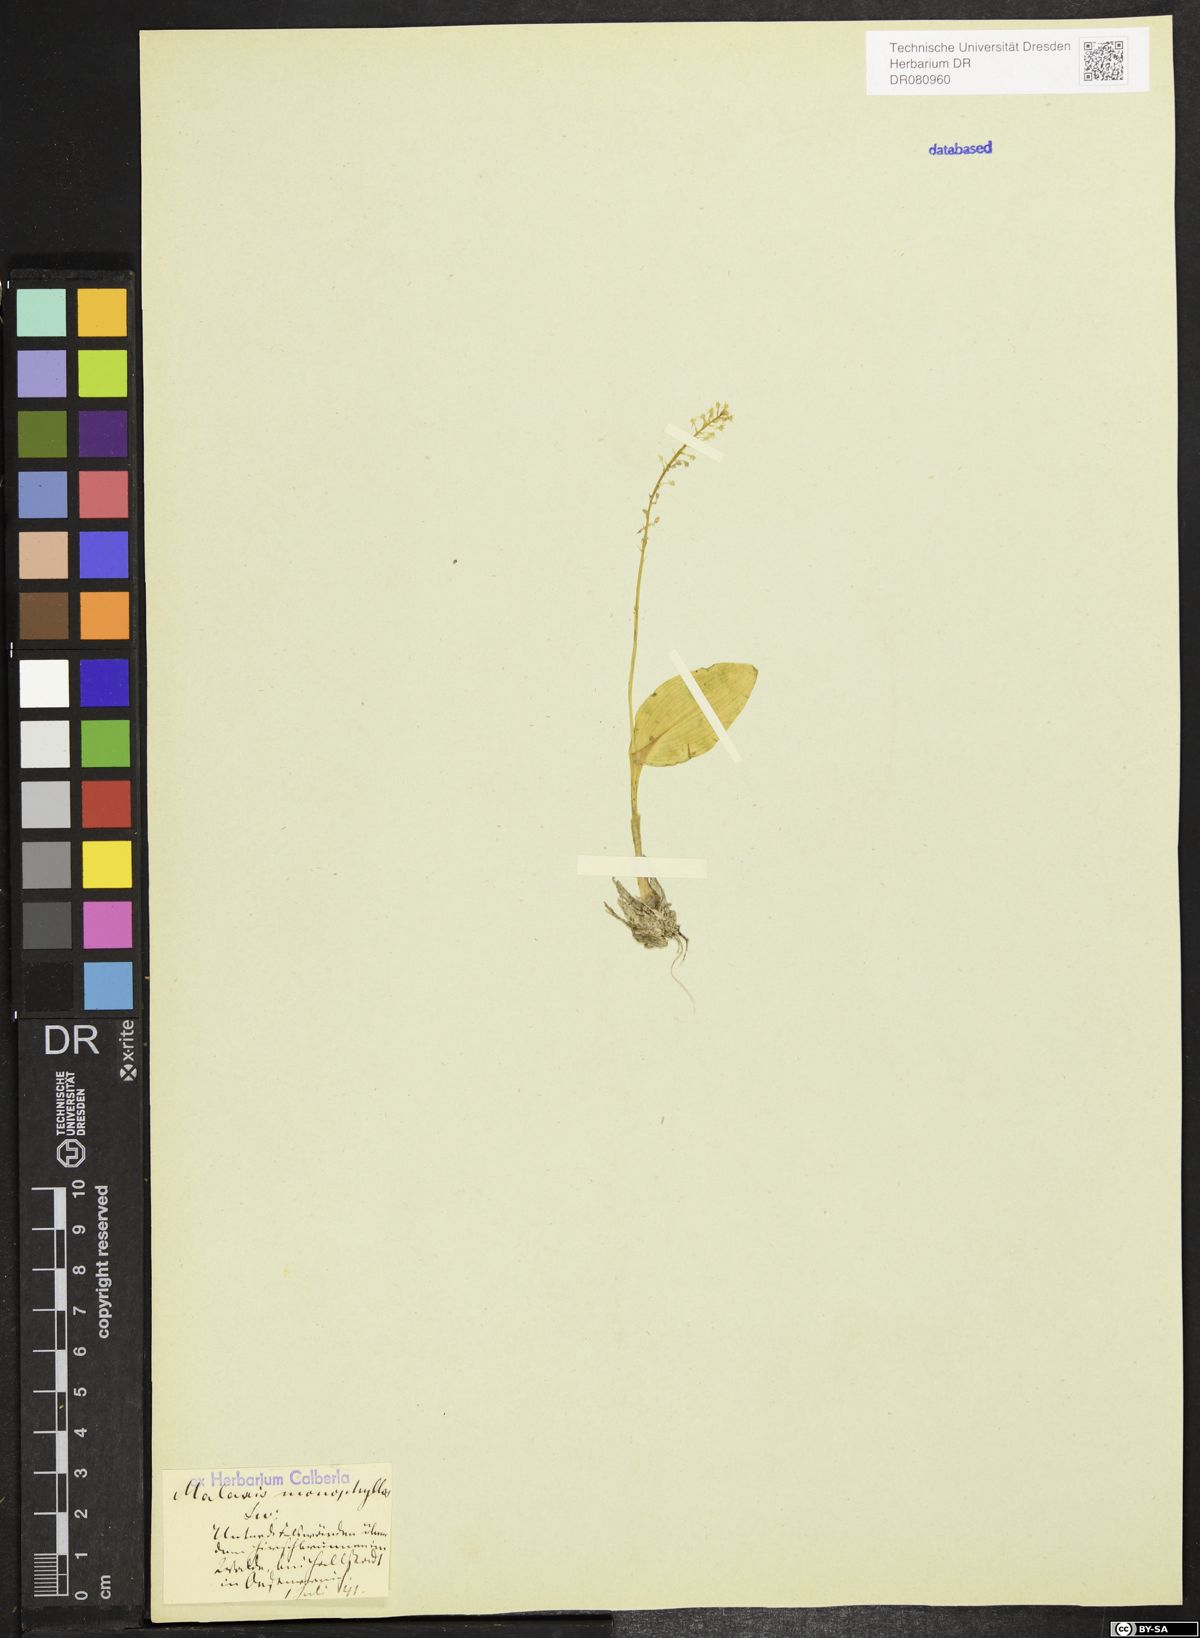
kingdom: Plantae
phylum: Tracheophyta
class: Liliopsida
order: Asparagales
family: Orchidaceae
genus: Malaxis
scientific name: Malaxis monophyllos
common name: White adder's-mouth
